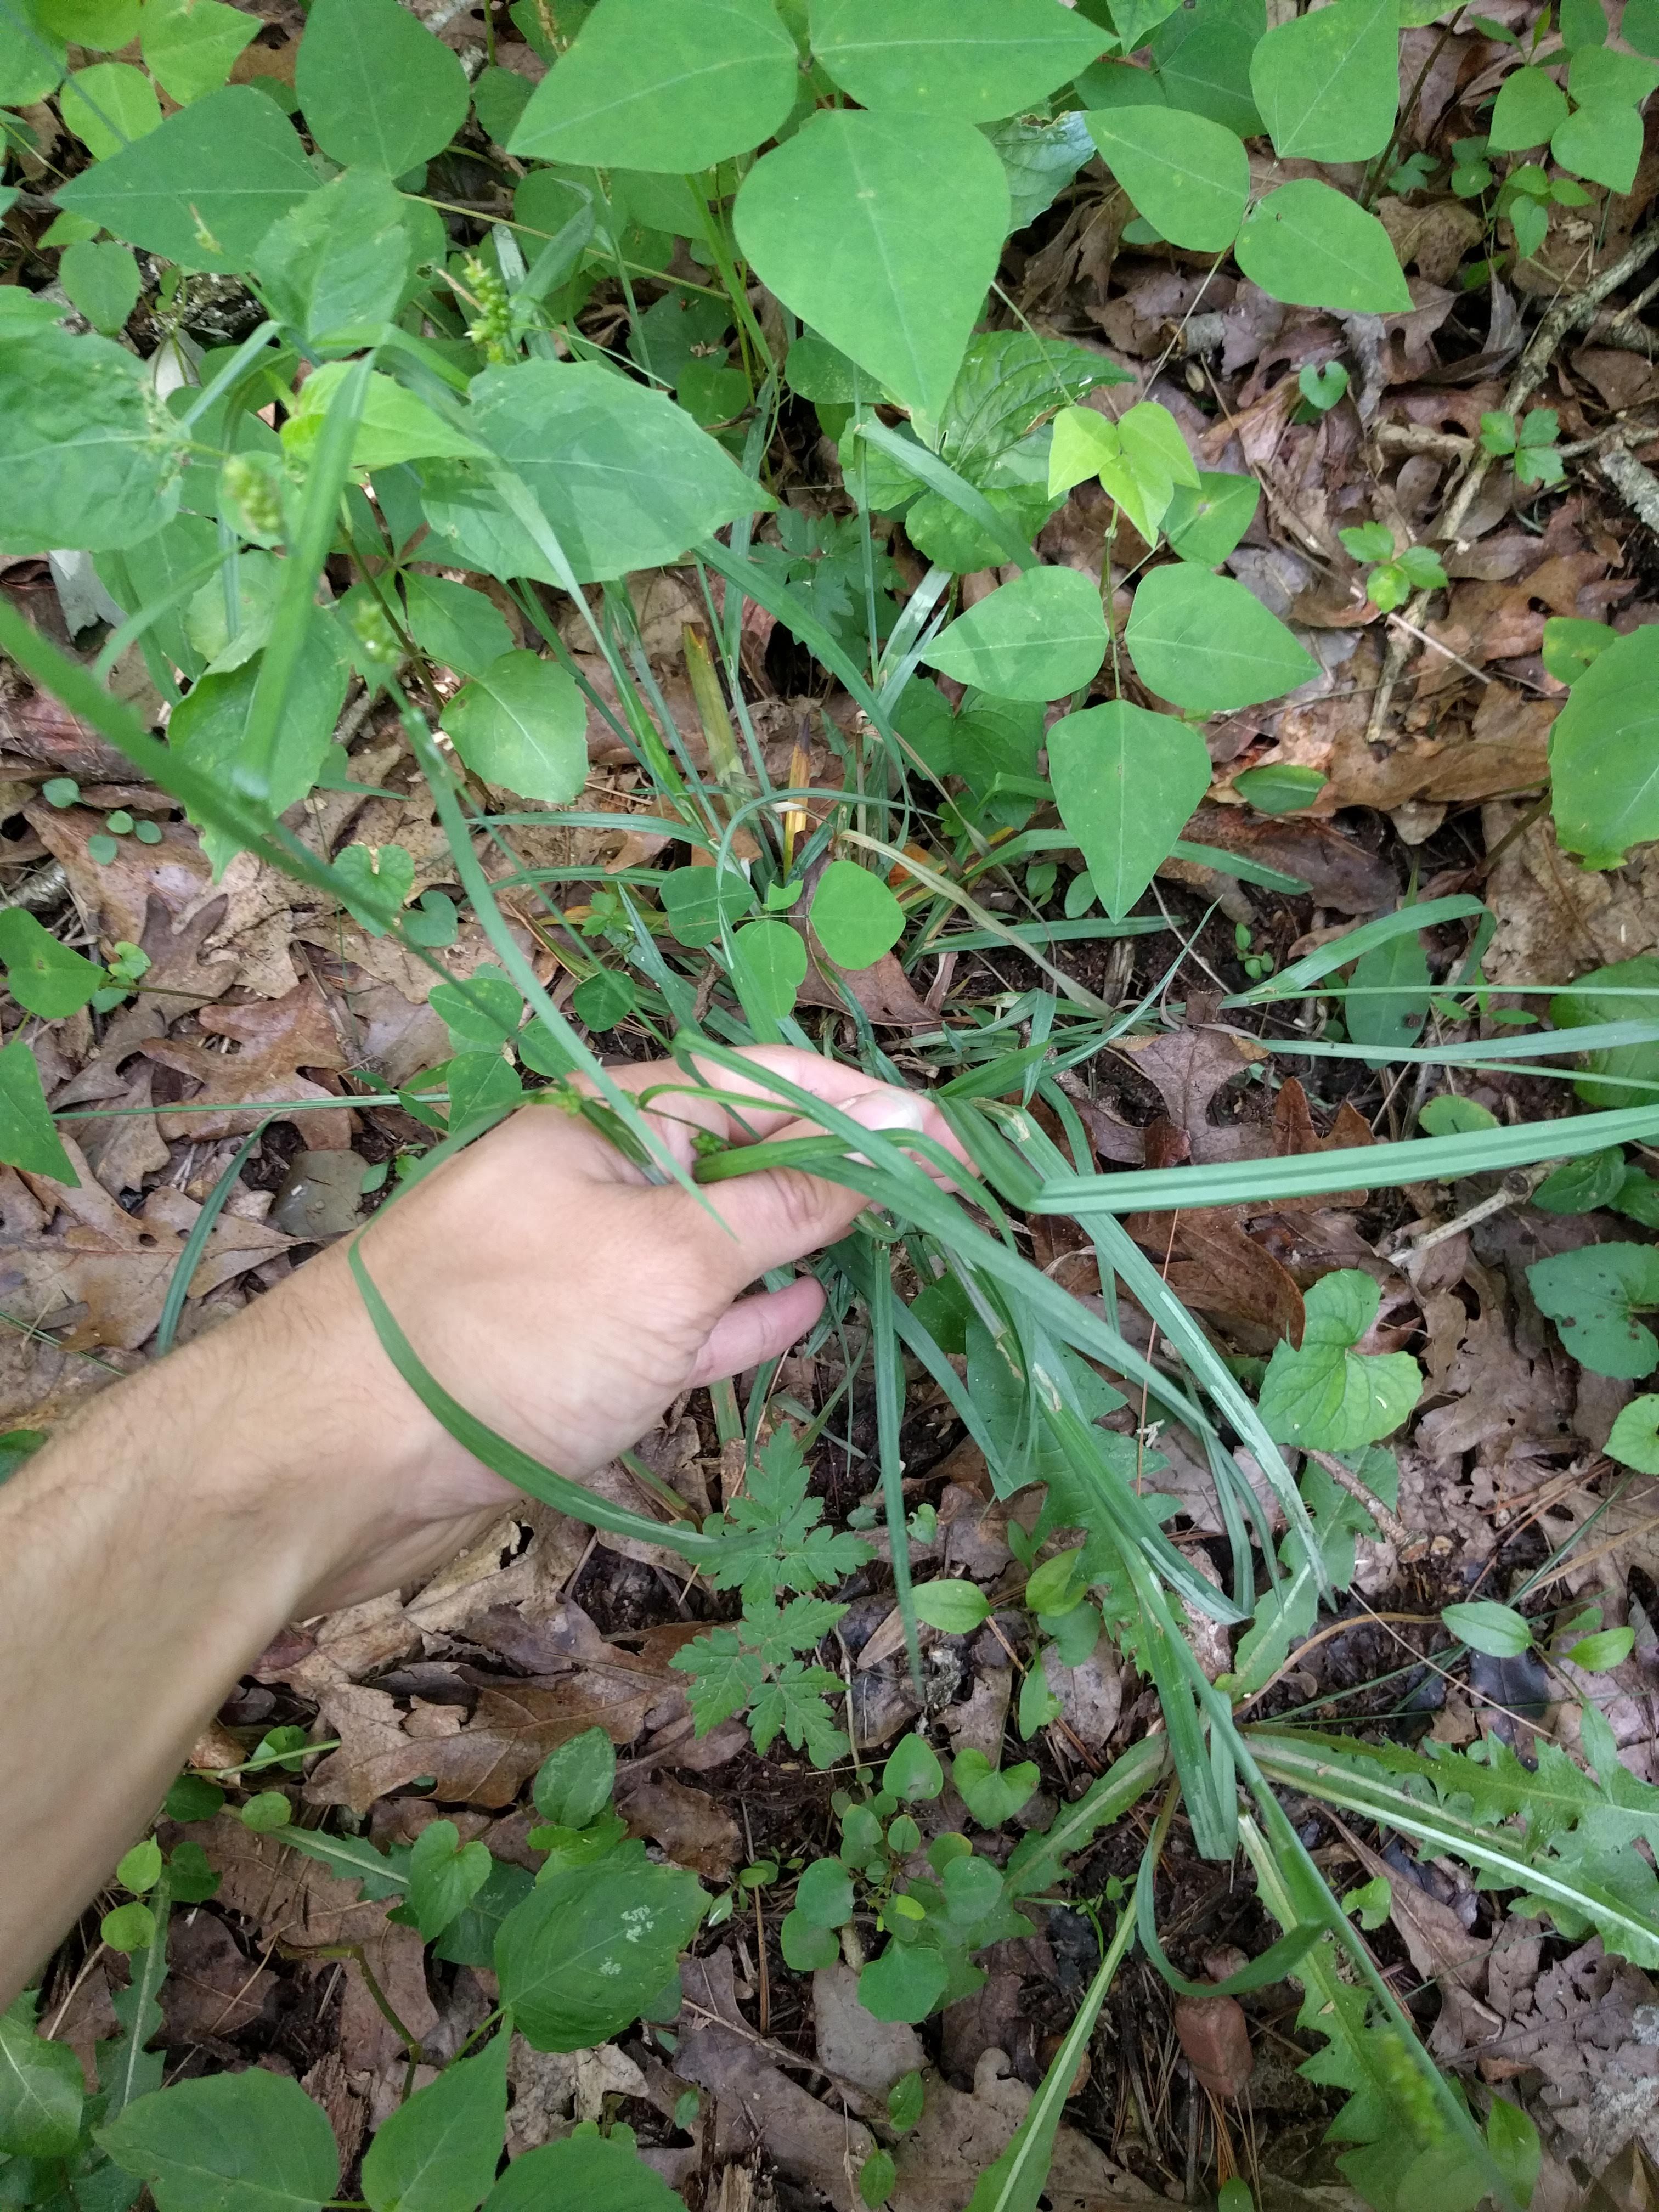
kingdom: Plantae
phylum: Tracheophyta
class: Liliopsida
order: Poales
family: Cyperaceae
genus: Carex
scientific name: Carex laxiculmis
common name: Spreading sedge
